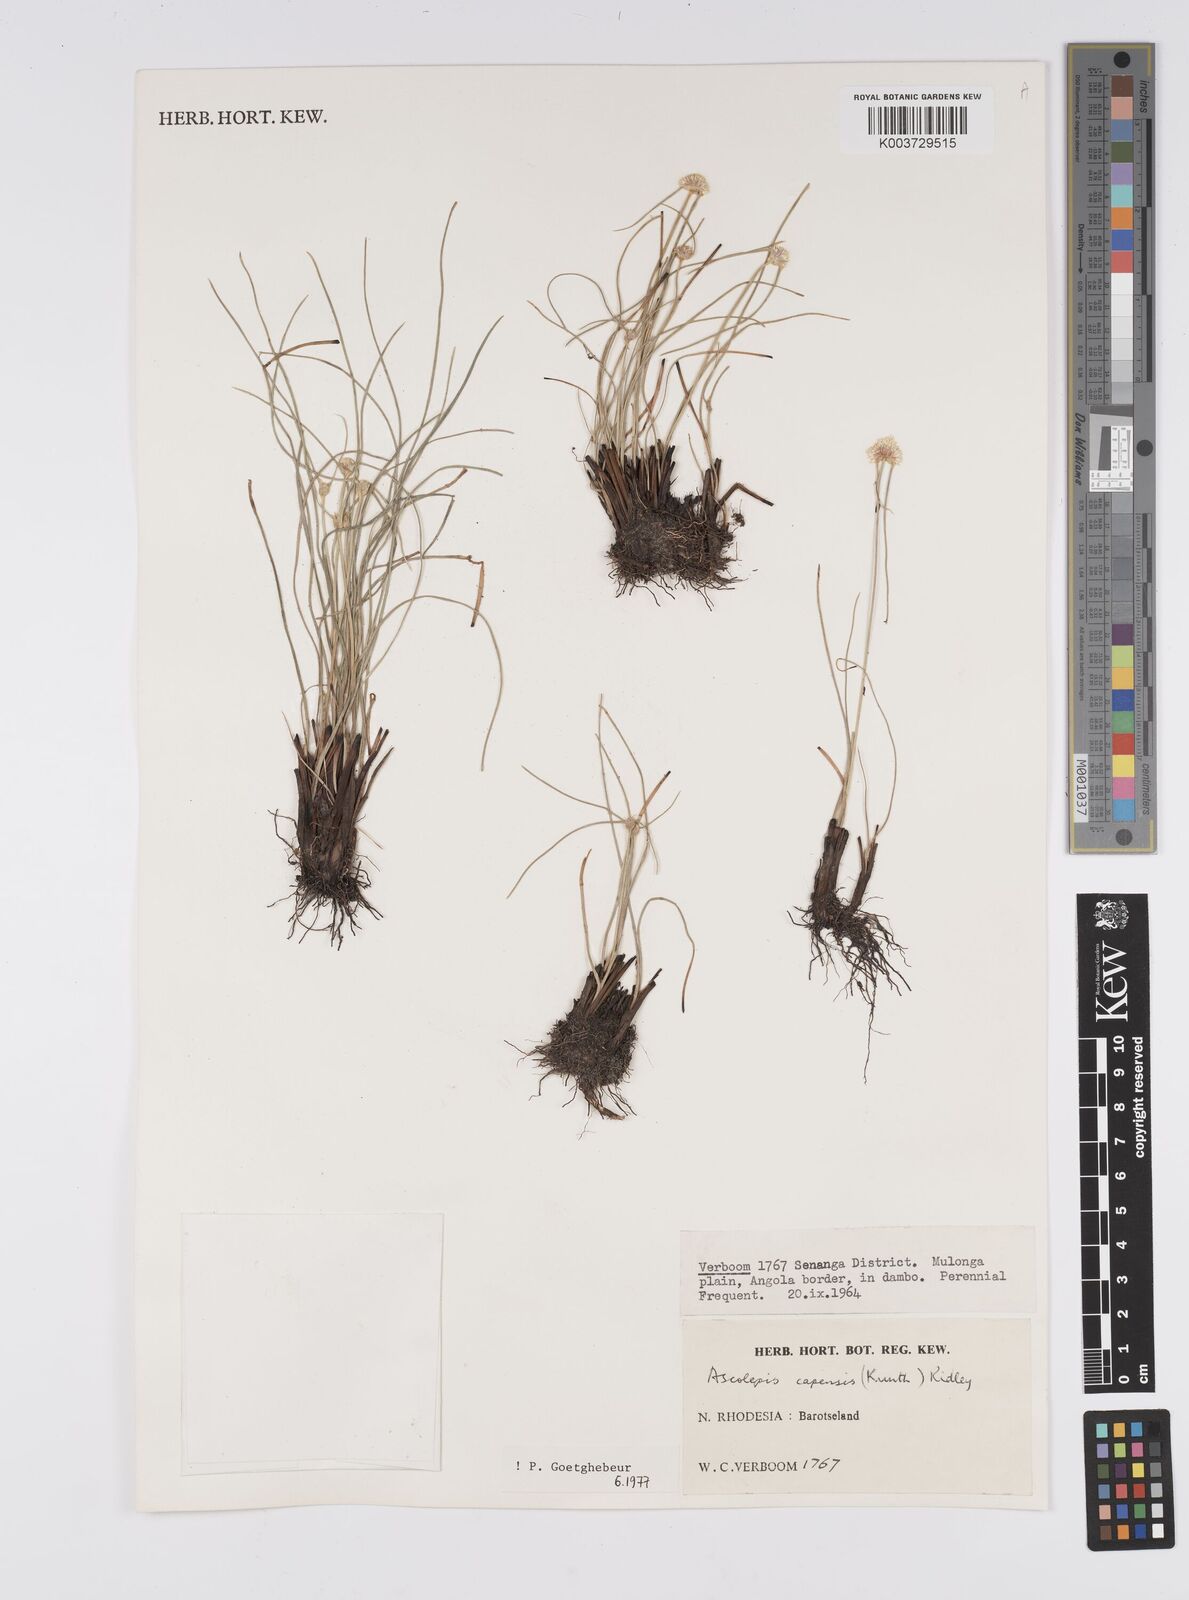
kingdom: Plantae
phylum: Tracheophyta
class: Liliopsida
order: Poales
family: Cyperaceae
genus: Cyperus
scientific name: Cyperus
